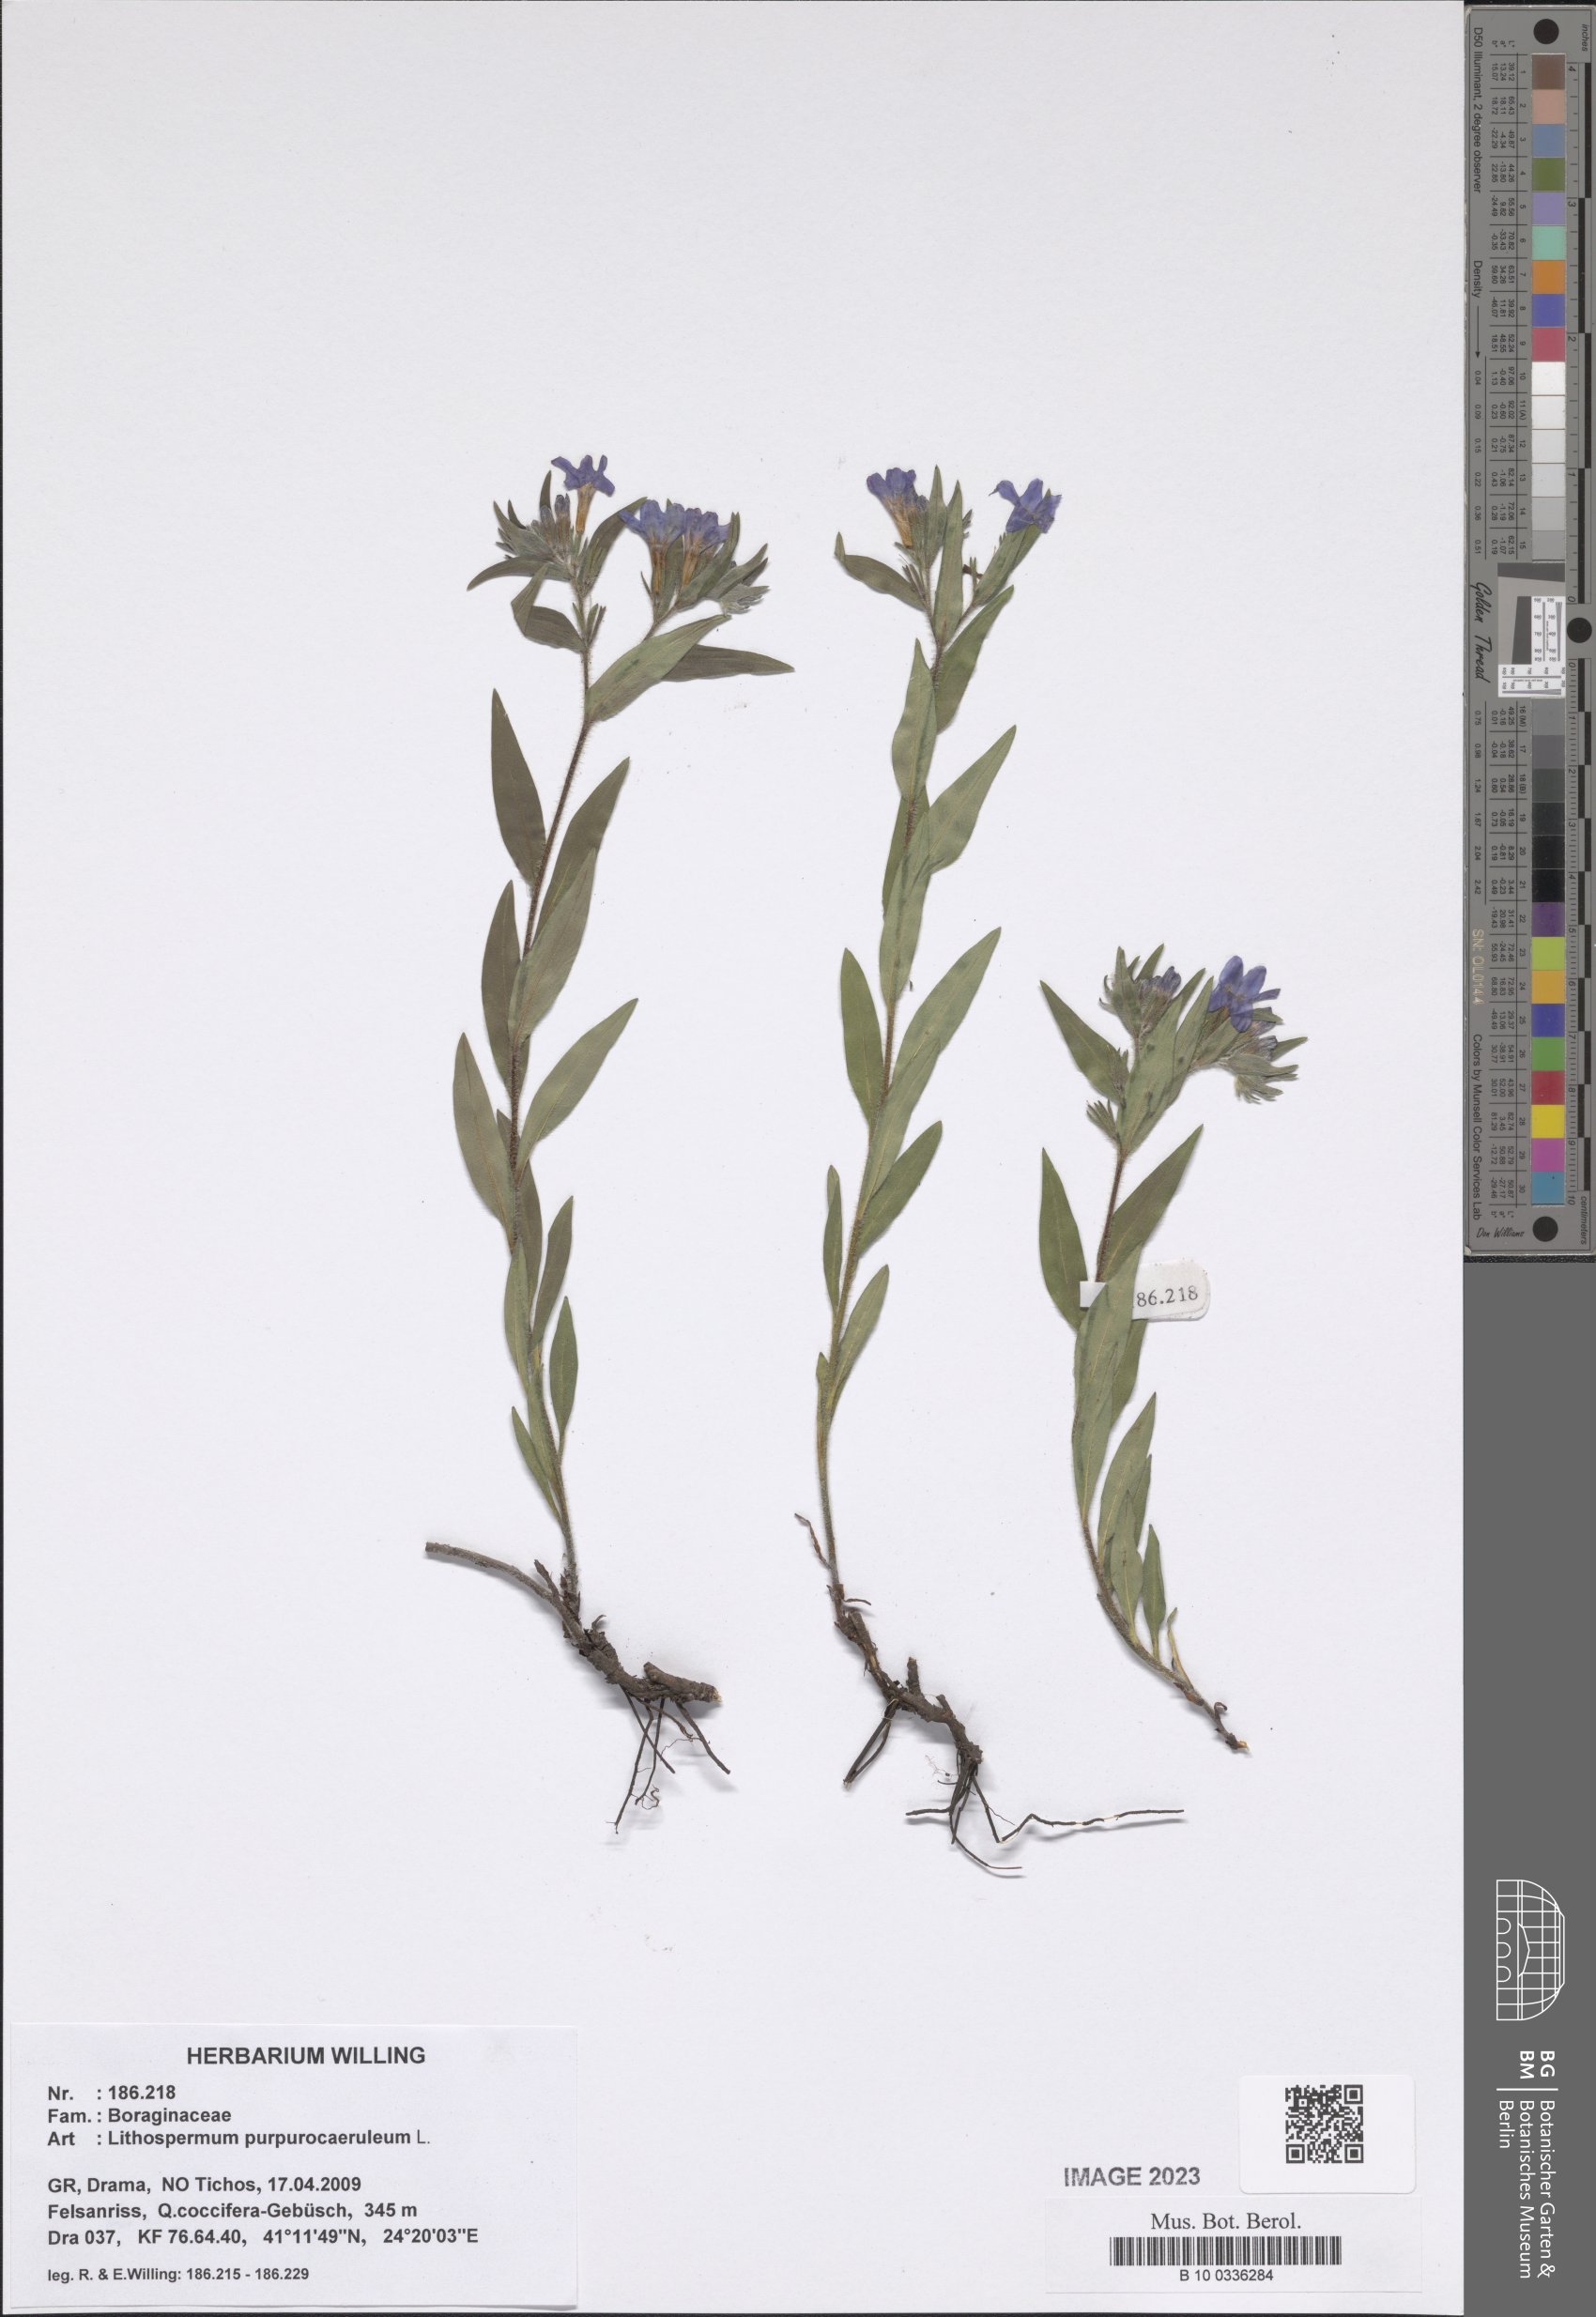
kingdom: Plantae
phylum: Tracheophyta
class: Magnoliopsida
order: Boraginales
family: Boraginaceae
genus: Aegonychon
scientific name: Aegonychon purpurocaeruleum
